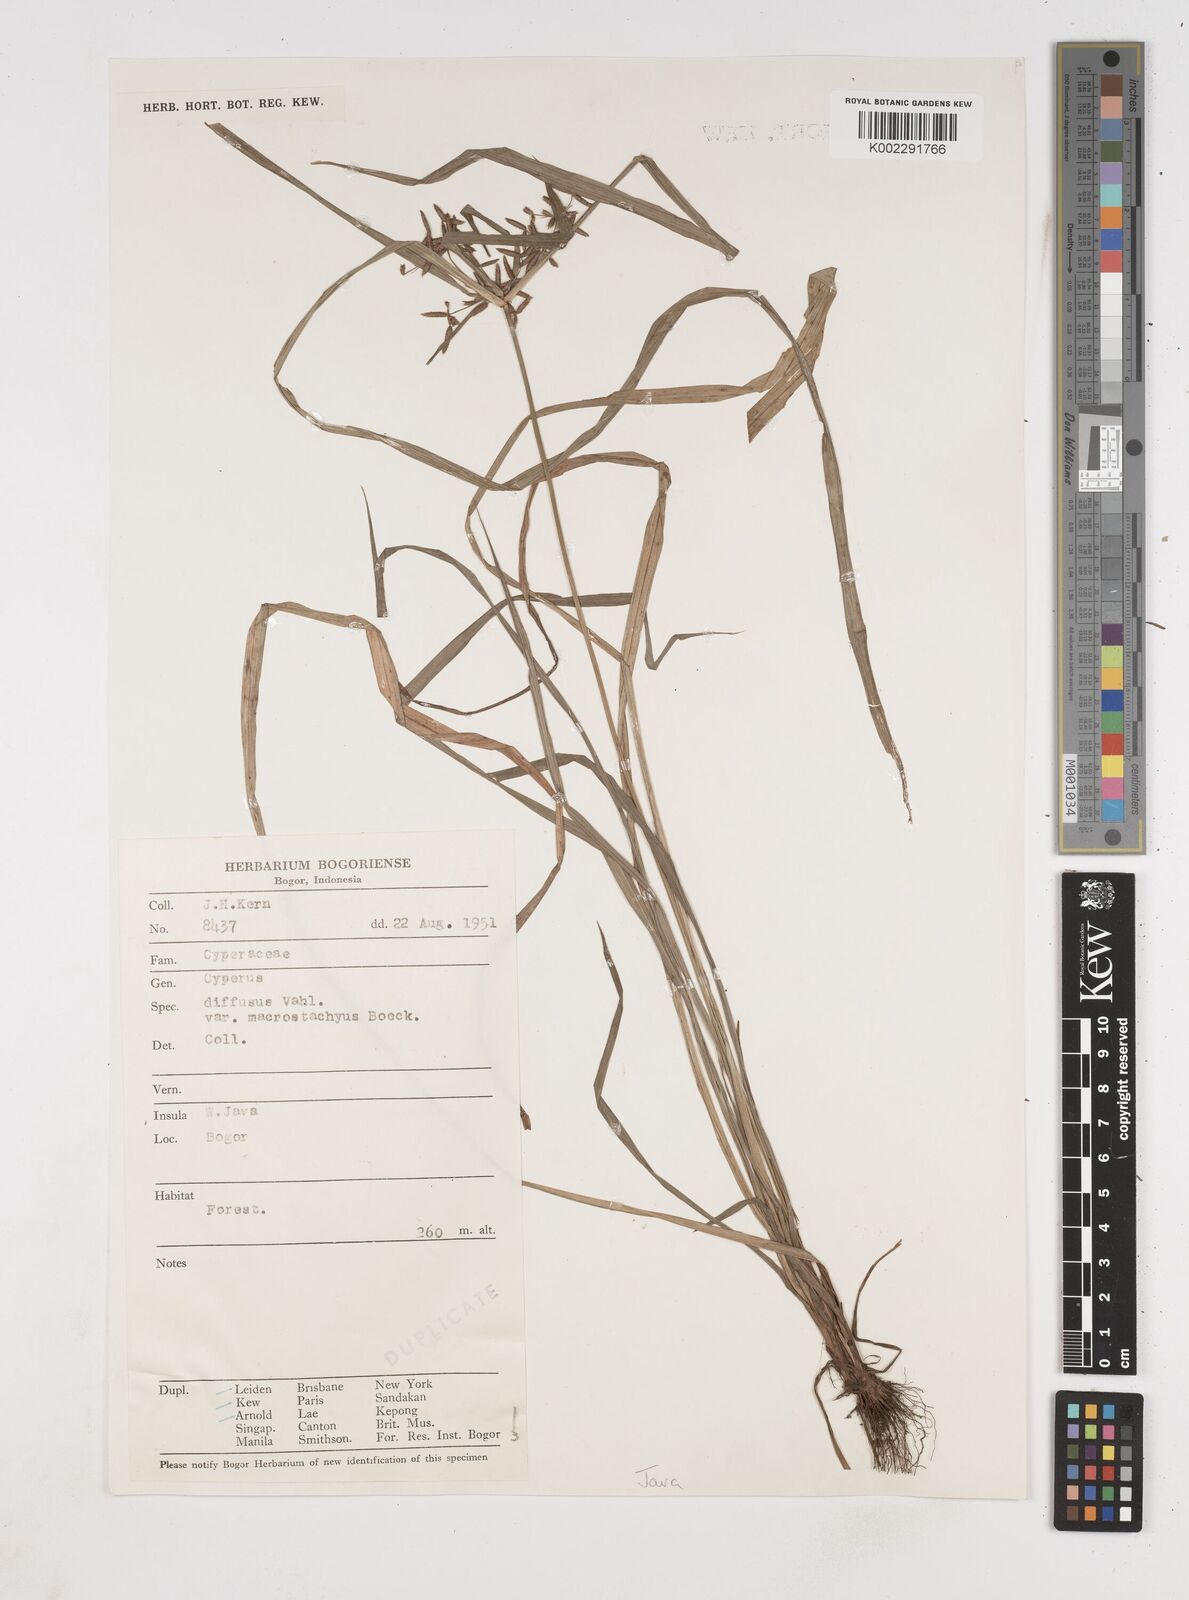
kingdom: Plantae
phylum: Tracheophyta
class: Liliopsida
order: Poales
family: Cyperaceae
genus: Cyperus
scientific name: Cyperus diffusus
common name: Dwarf umbrella grass
